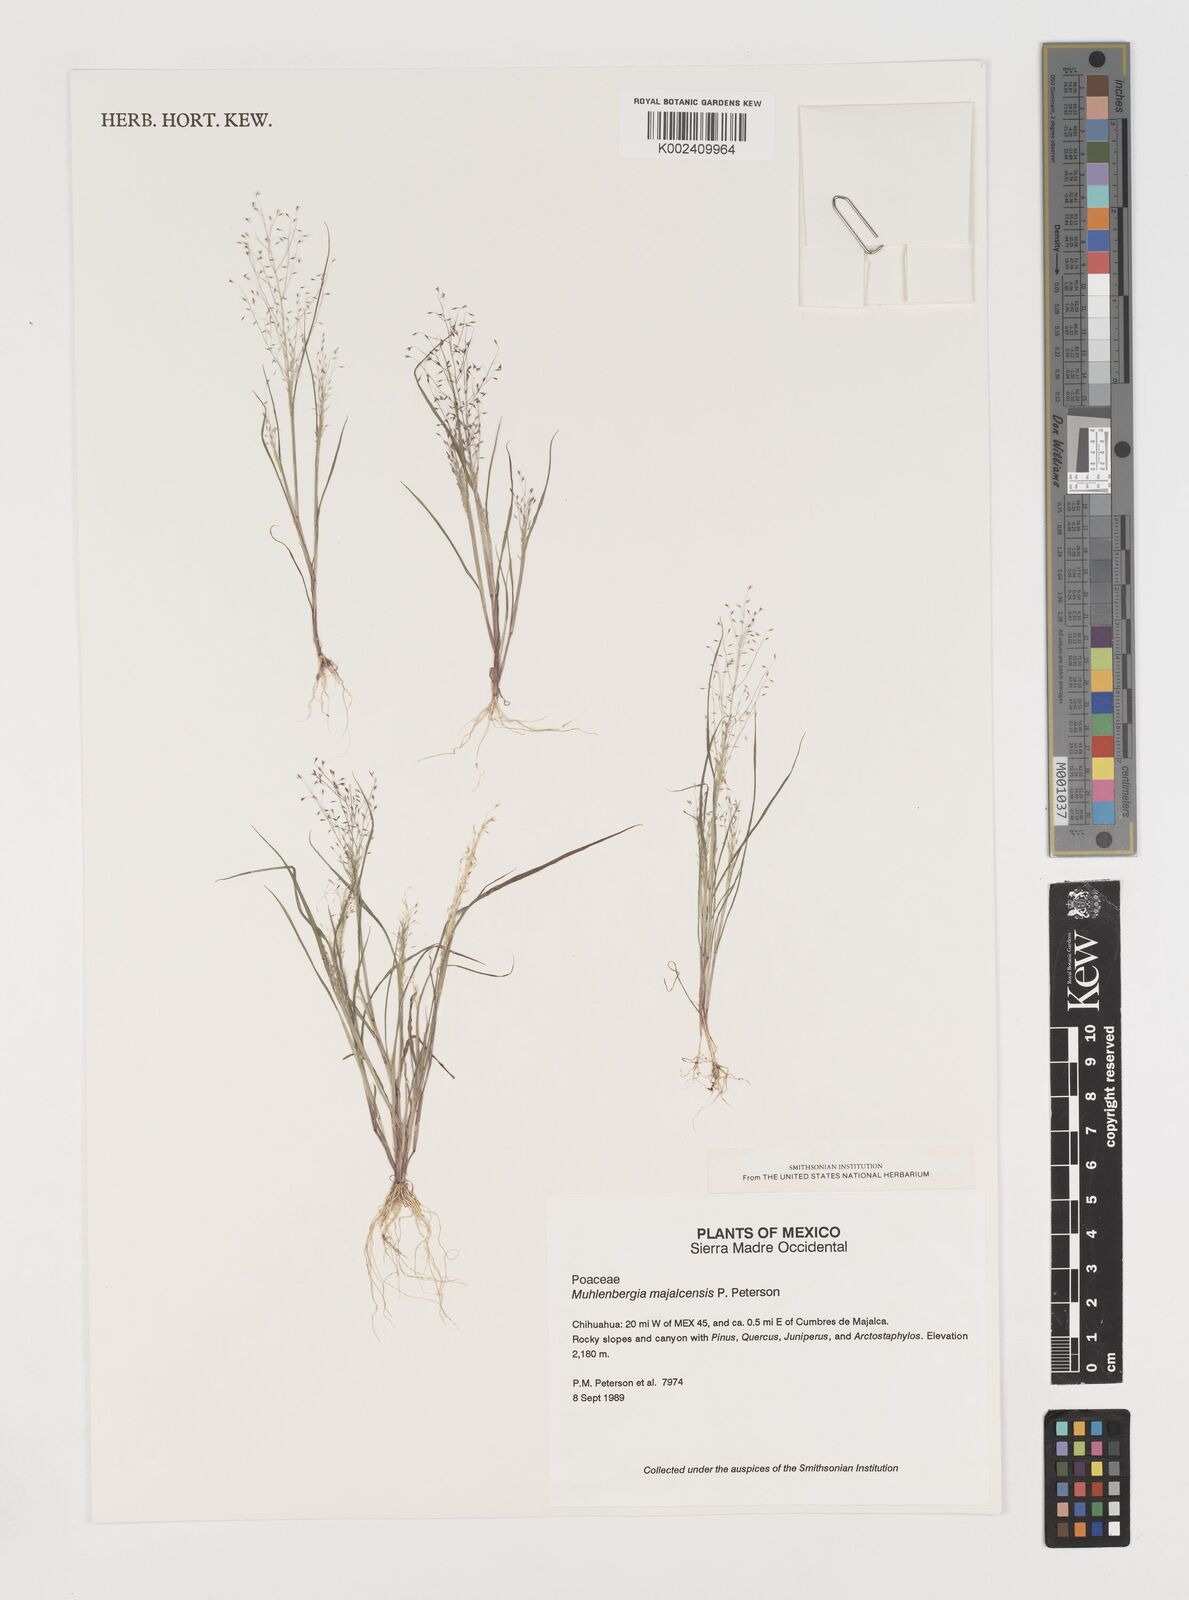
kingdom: Plantae
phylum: Tracheophyta
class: Liliopsida
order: Poales
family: Poaceae
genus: Muhlenbergia
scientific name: Muhlenbergia majalcensis
